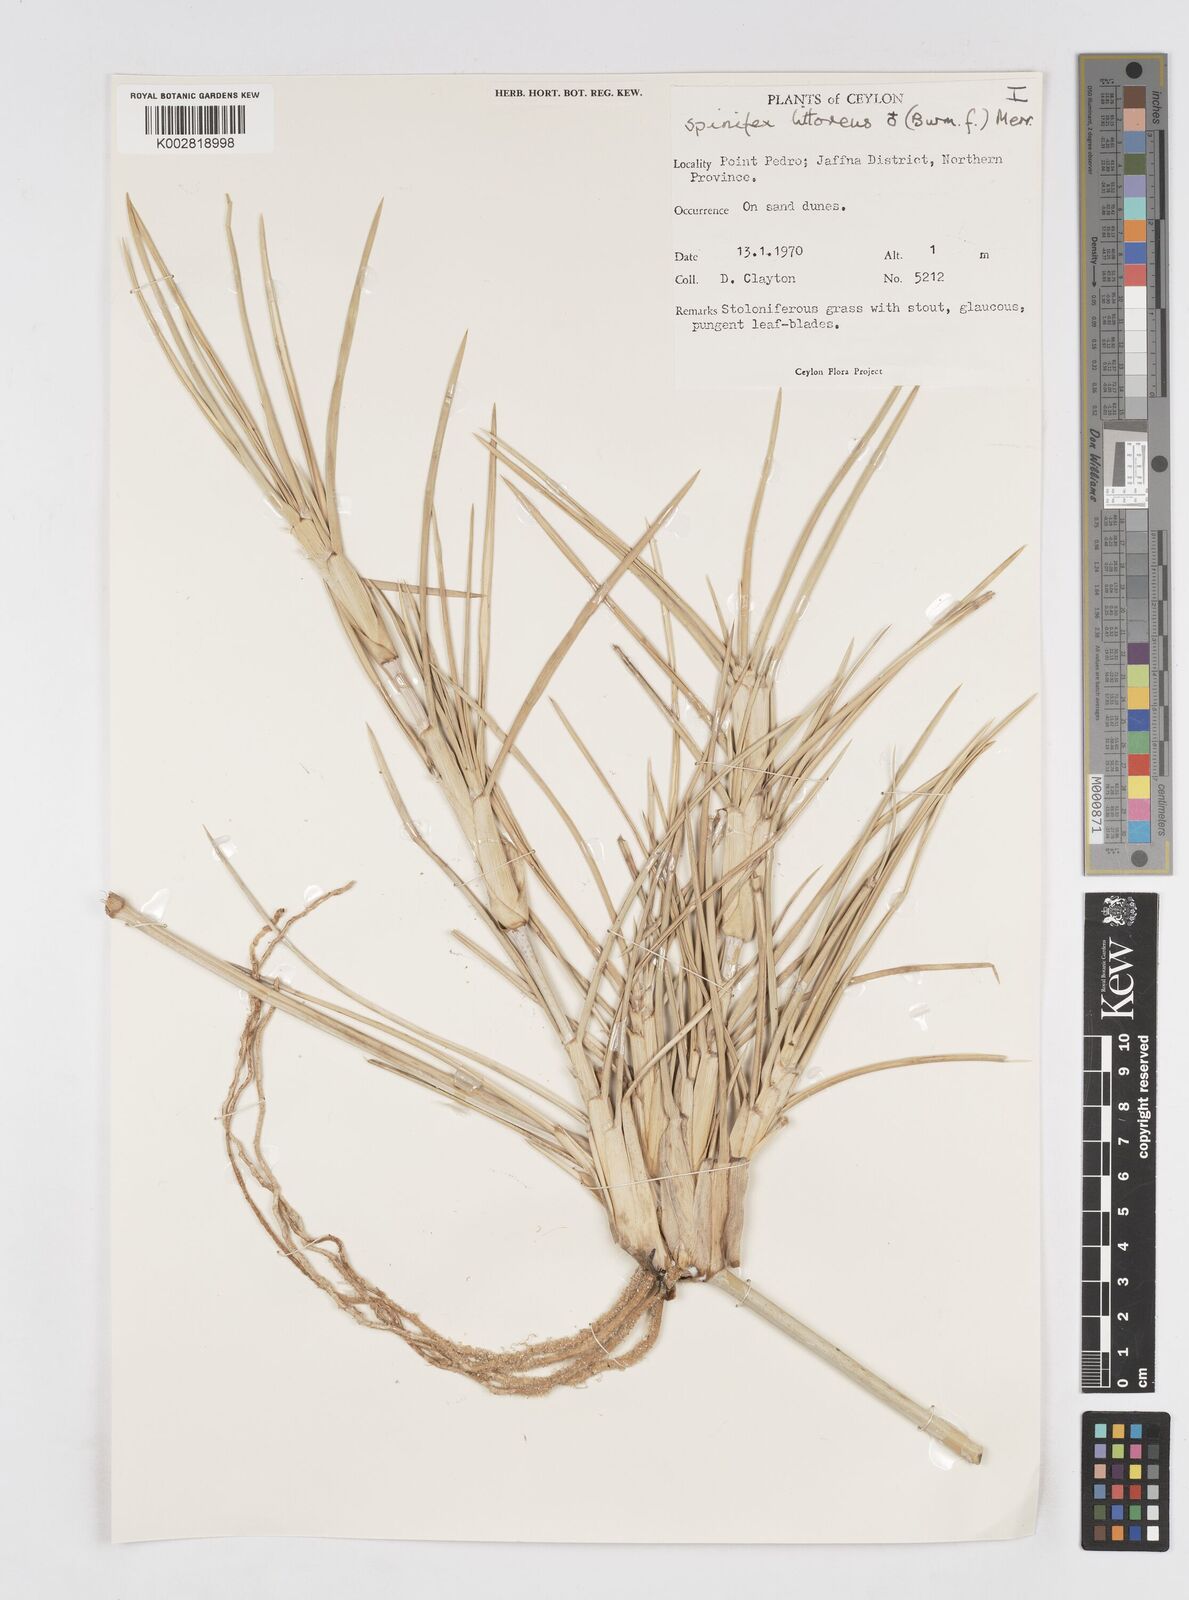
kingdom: Plantae
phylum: Tracheophyta
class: Liliopsida
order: Poales
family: Poaceae
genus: Spinifex
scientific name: Spinifex littoreus
